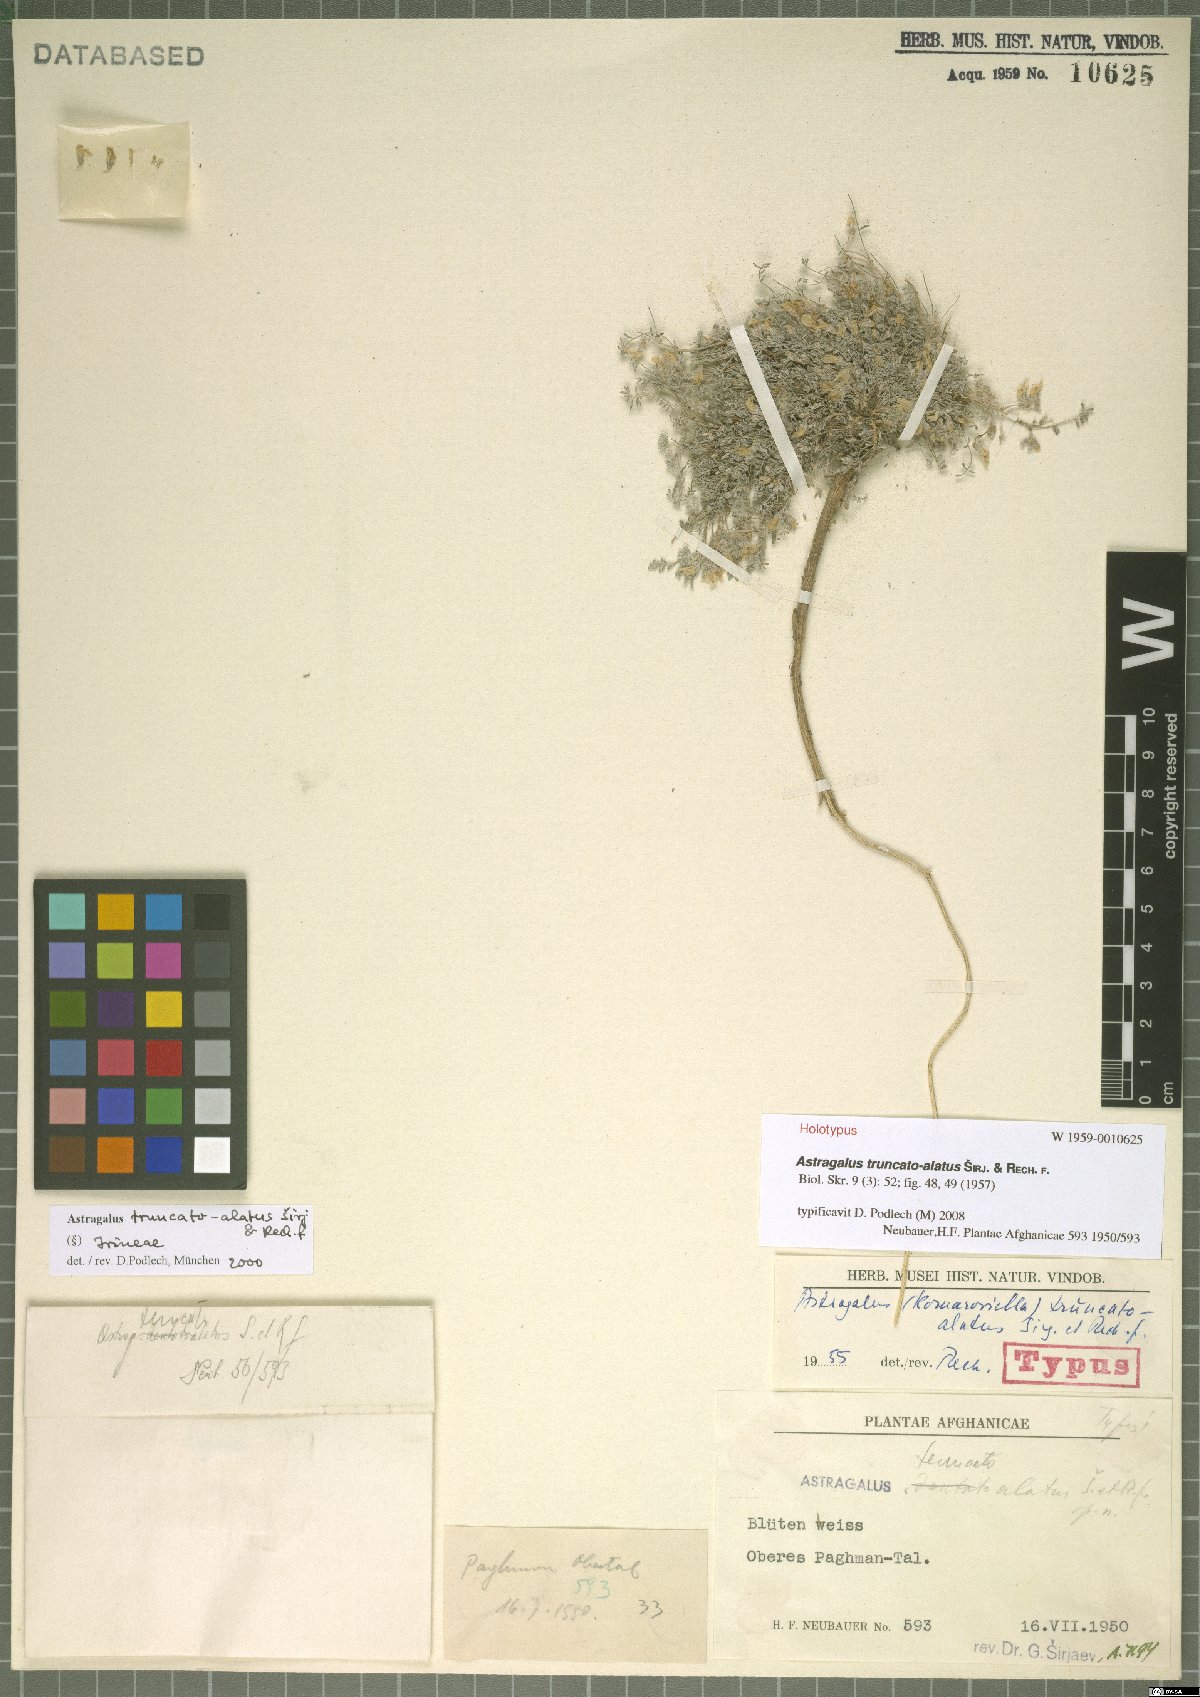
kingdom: Plantae
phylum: Tracheophyta
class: Magnoliopsida
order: Fabales
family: Fabaceae
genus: Astragalus
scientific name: Astragalus truncatoalatus
